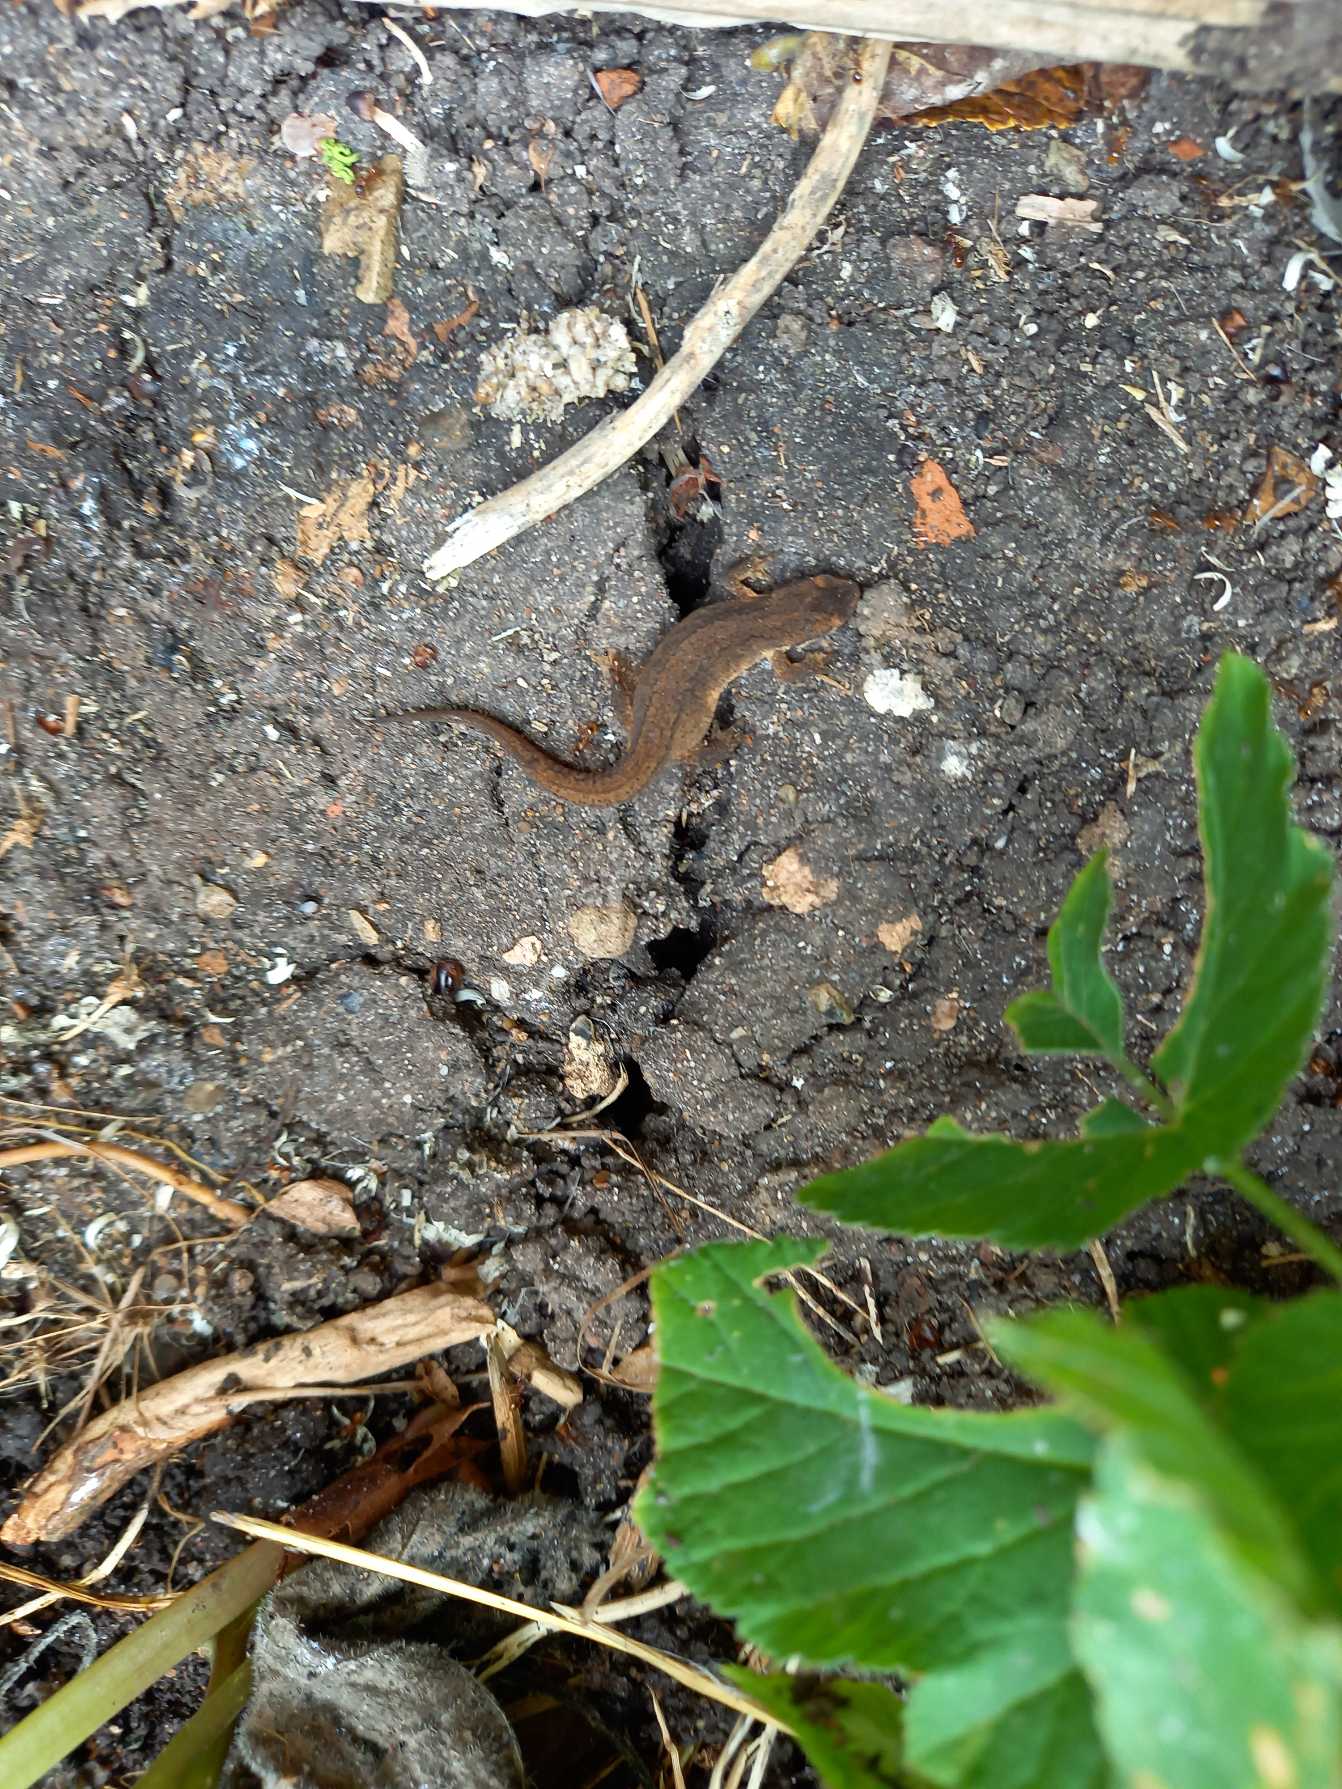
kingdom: Animalia
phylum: Chordata
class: Amphibia
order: Caudata
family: Salamandridae
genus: Lissotriton
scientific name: Lissotriton vulgaris
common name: Lille vandsalamander
